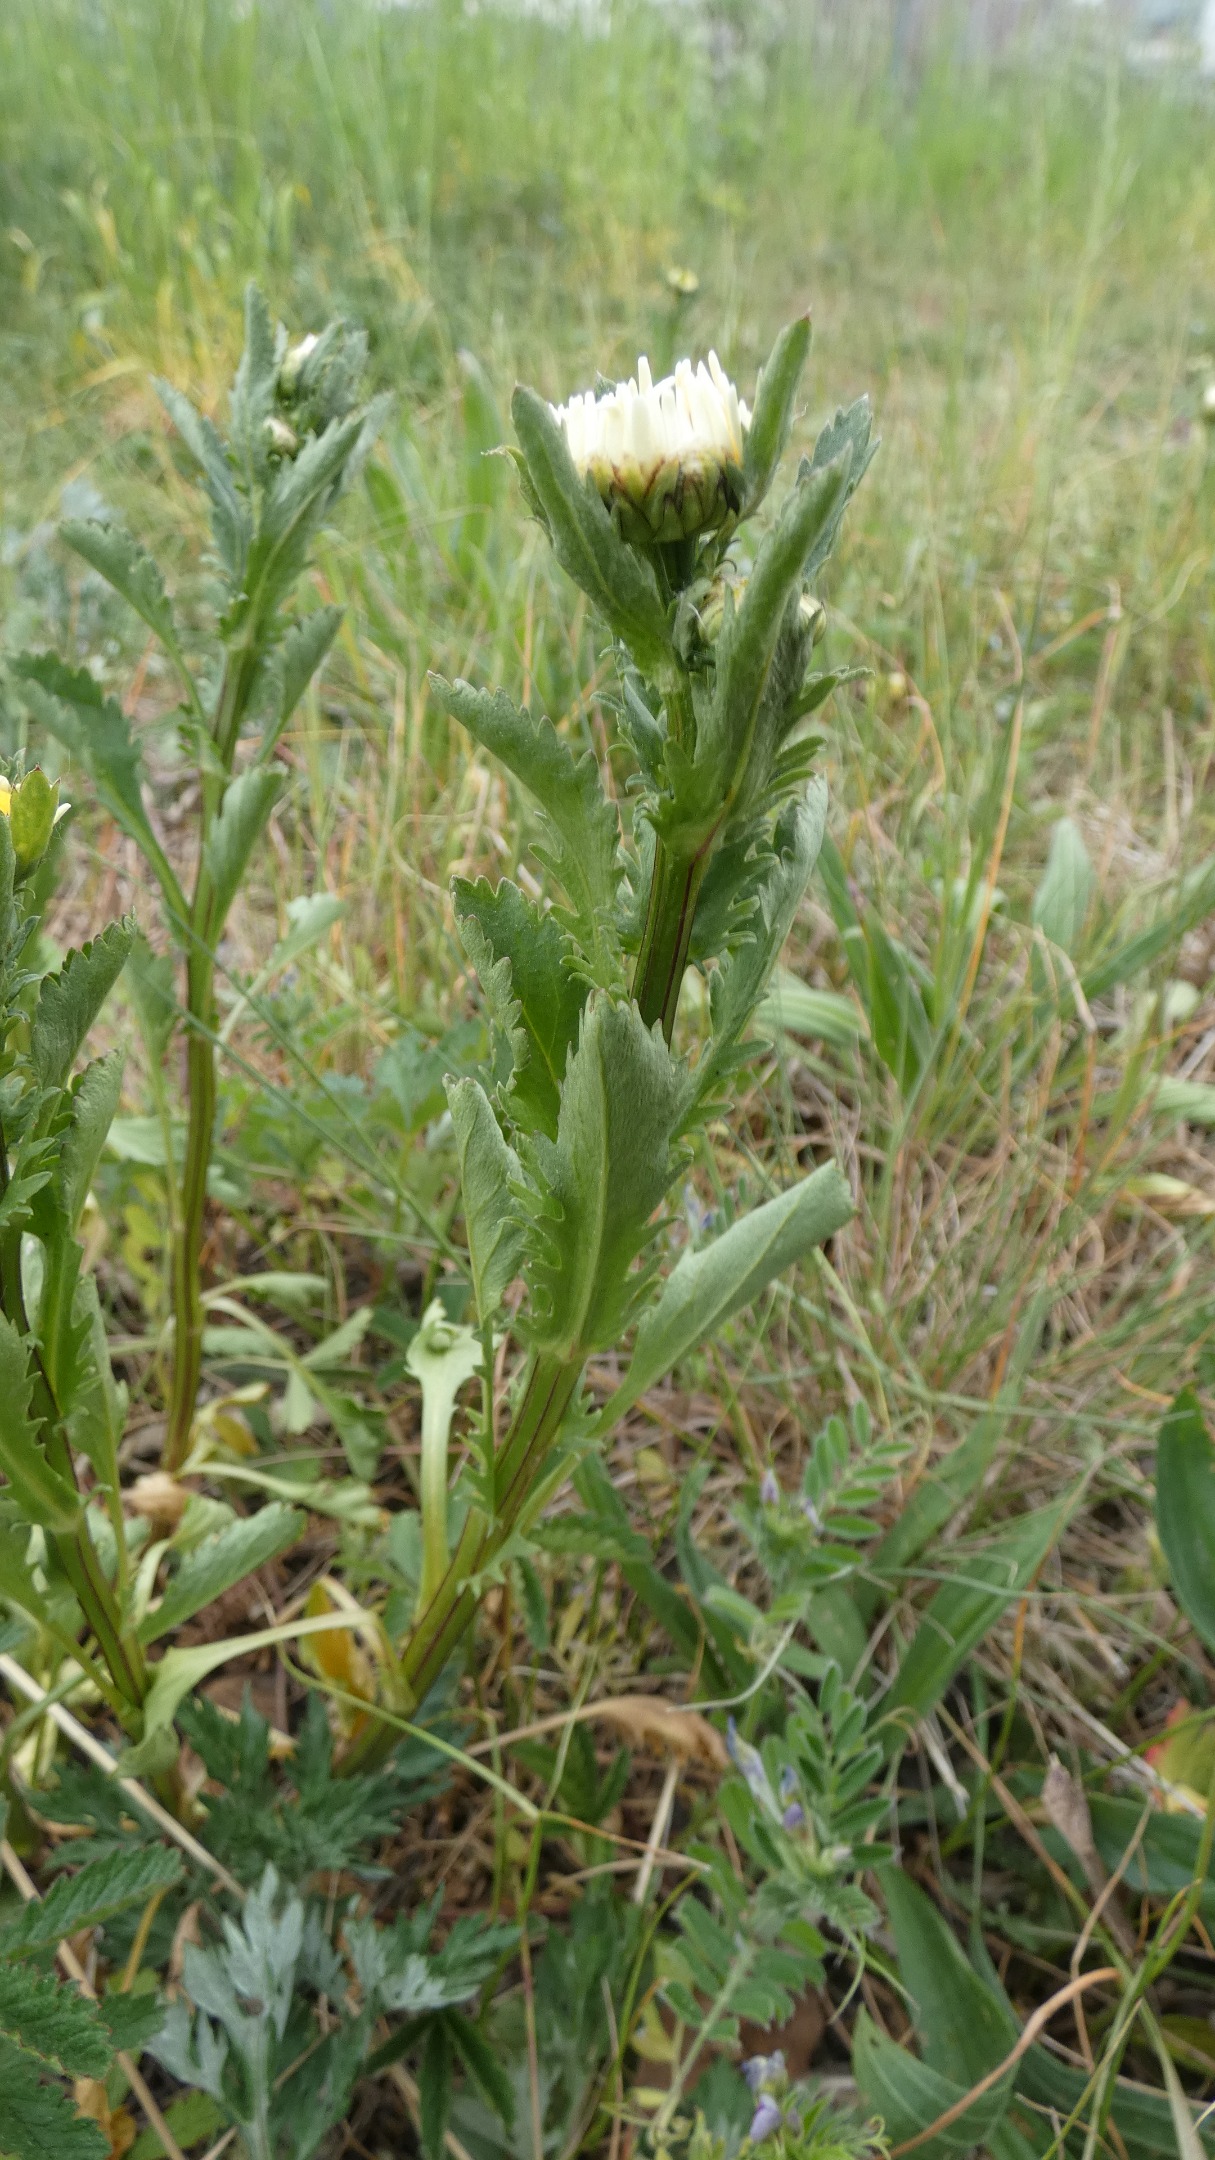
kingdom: Plantae
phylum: Tracheophyta
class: Magnoliopsida
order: Asterales
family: Asteraceae
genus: Leucanthemum
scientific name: Leucanthemum vulgare
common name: Hvid okseøje
